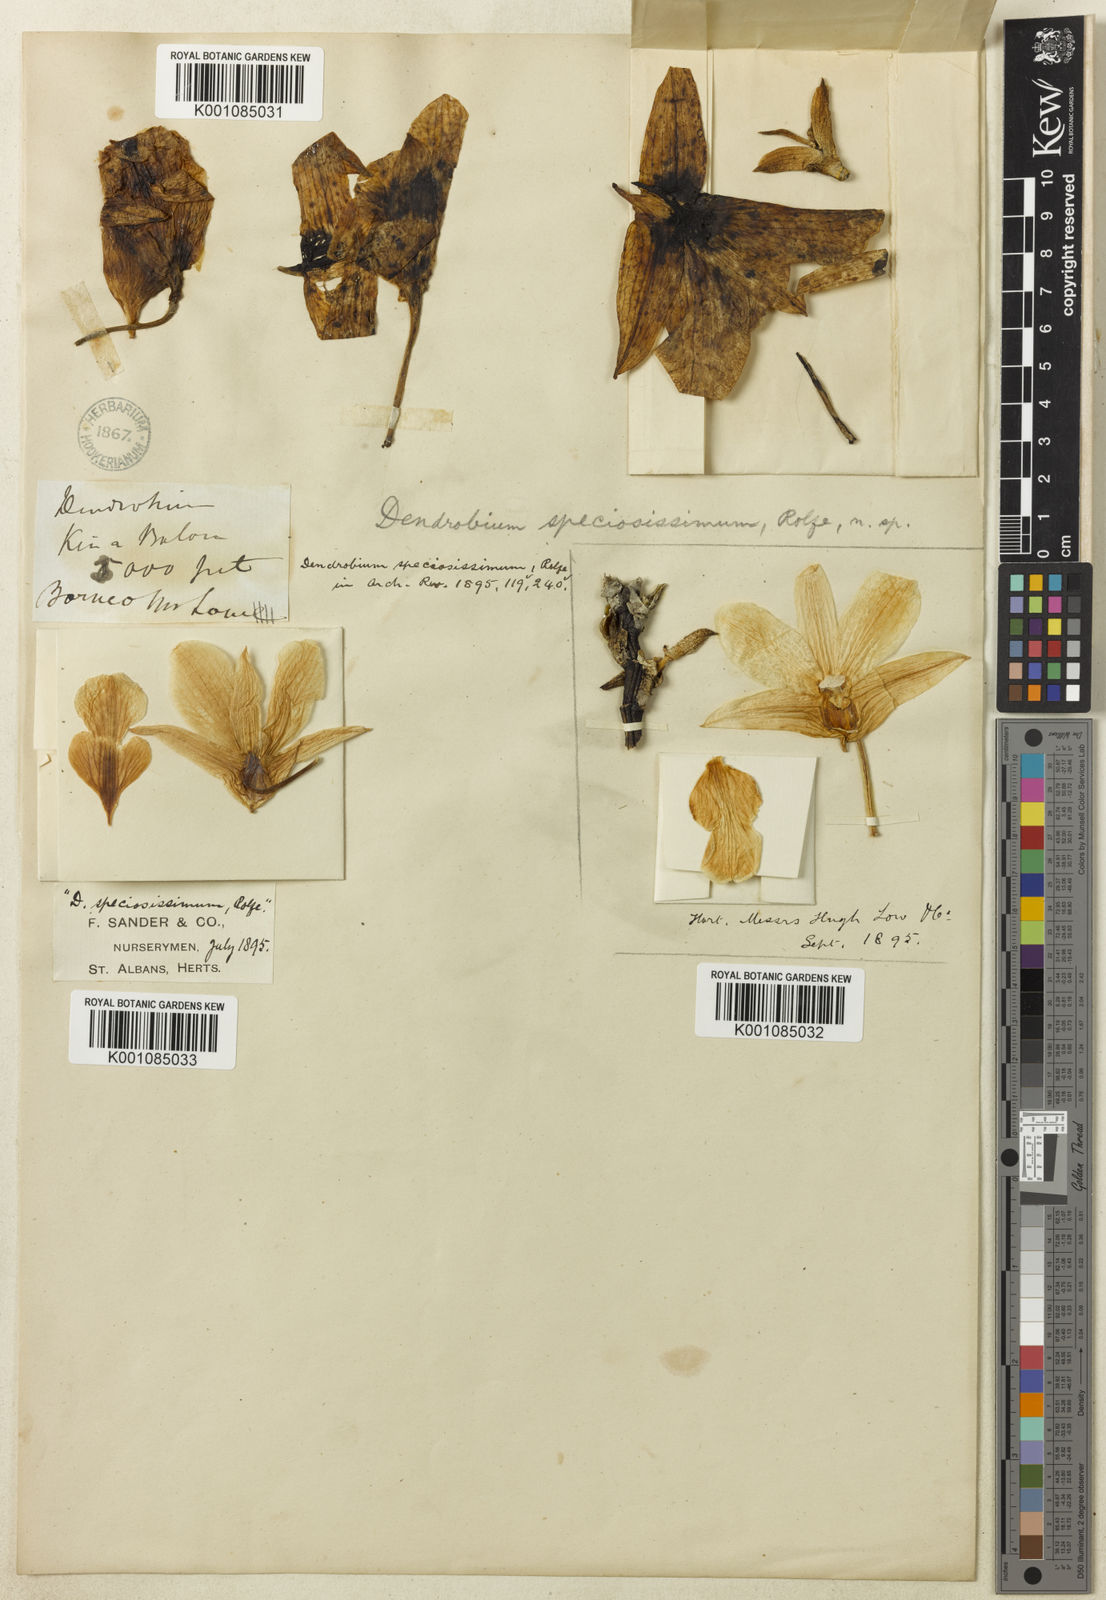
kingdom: Plantae
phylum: Tracheophyta
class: Liliopsida
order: Asparagales
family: Orchidaceae
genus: Dendrobium
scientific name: Dendrobium spectatissimum
